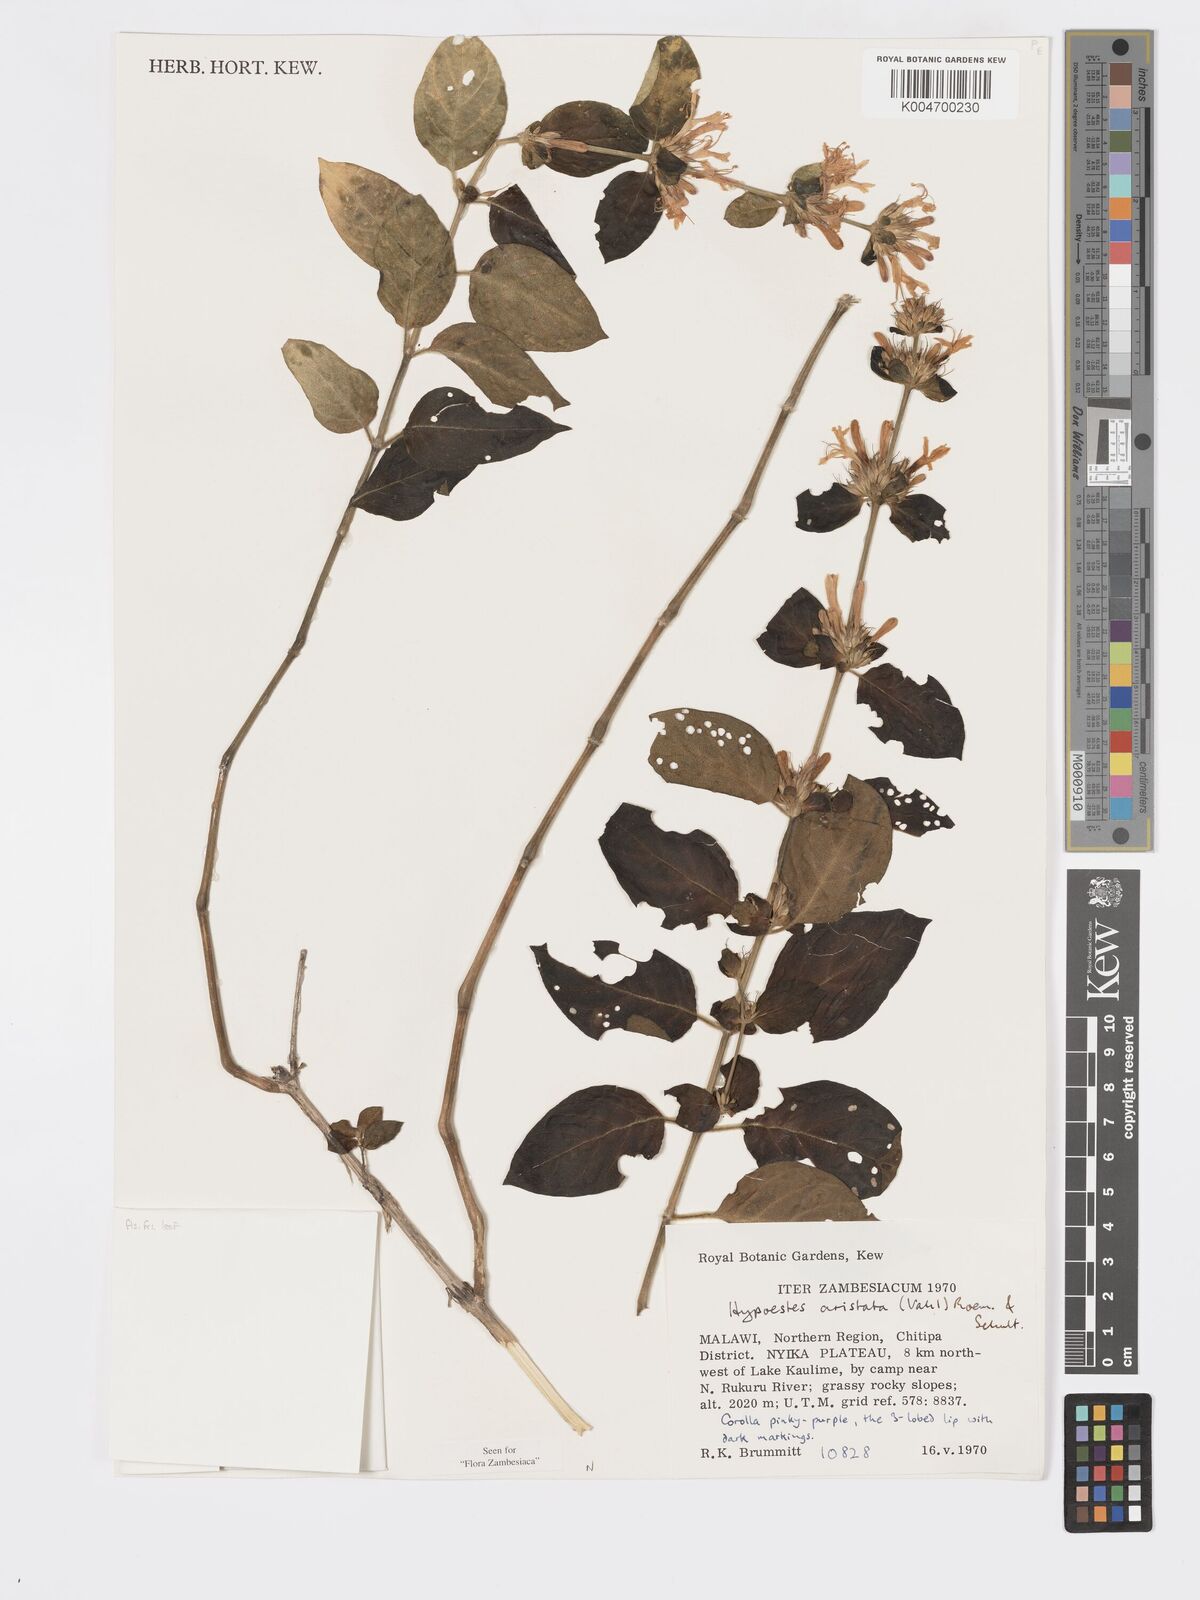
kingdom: Plantae
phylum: Tracheophyta
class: Magnoliopsida
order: Lamiales
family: Acanthaceae
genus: Hypoestes
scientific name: Hypoestes aristata
